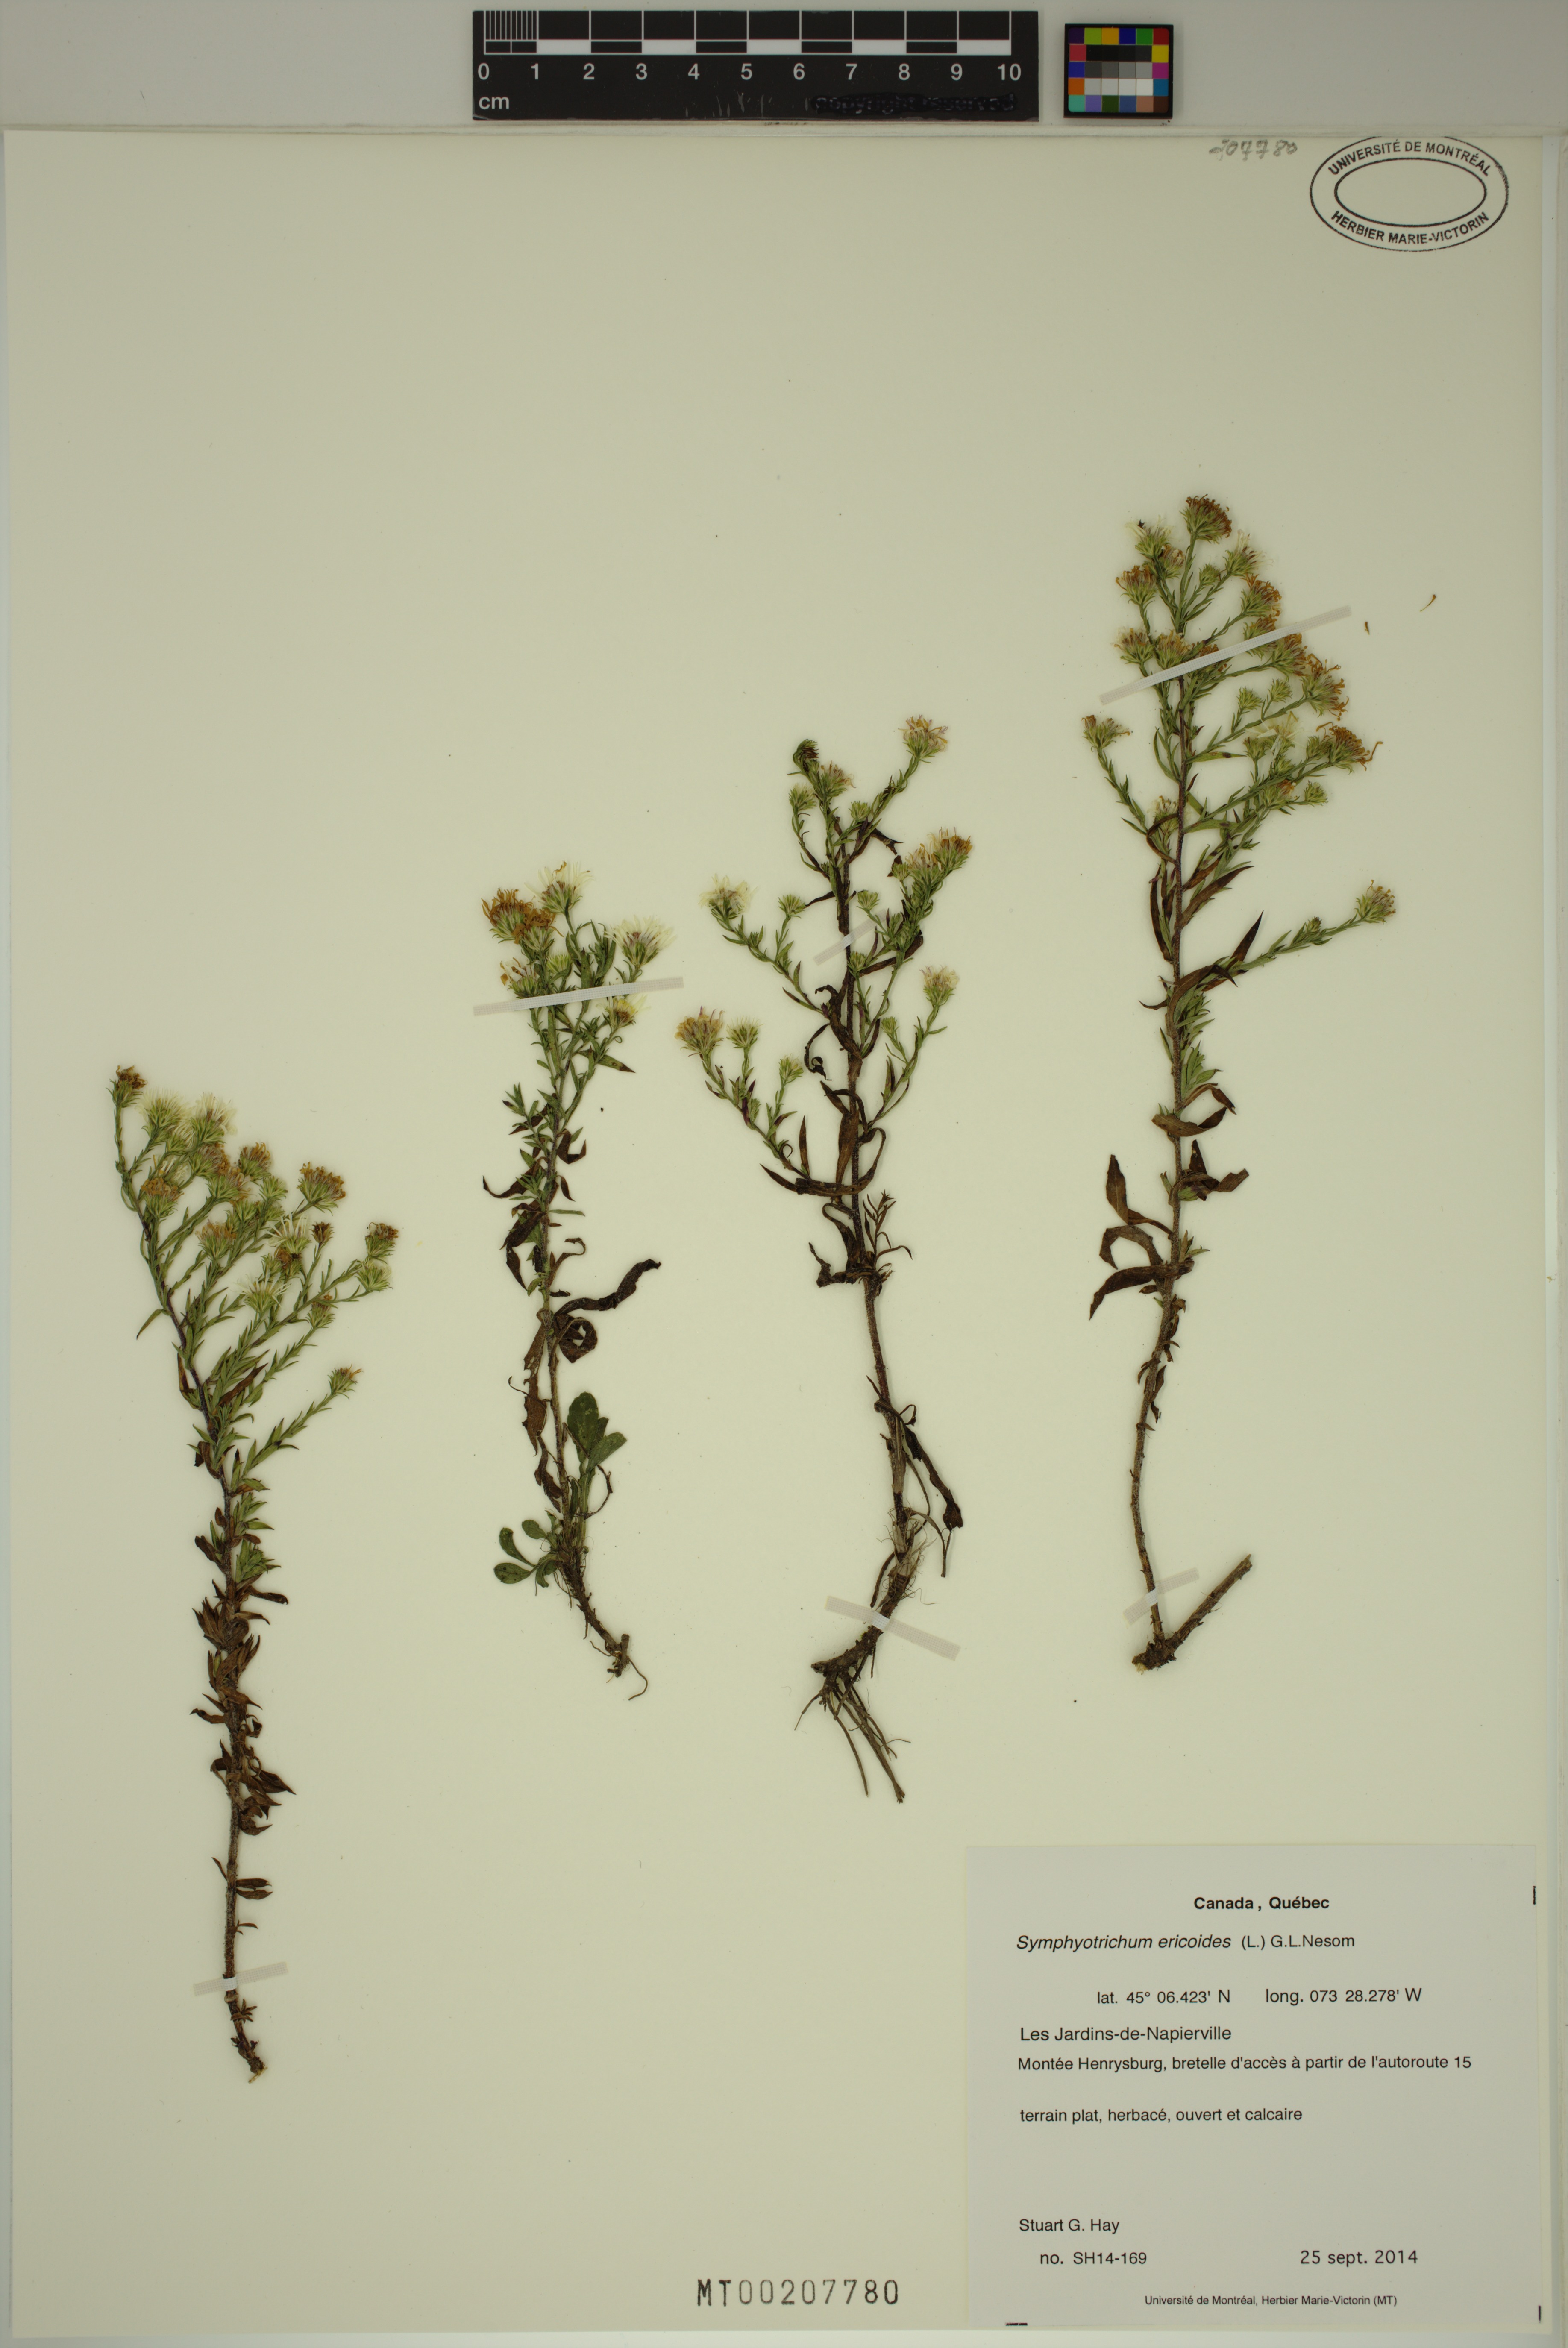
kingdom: Plantae
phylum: Tracheophyta
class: Magnoliopsida
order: Asterales
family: Asteraceae
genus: Symphyotrichum
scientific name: Symphyotrichum pilosum
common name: Awl aster
